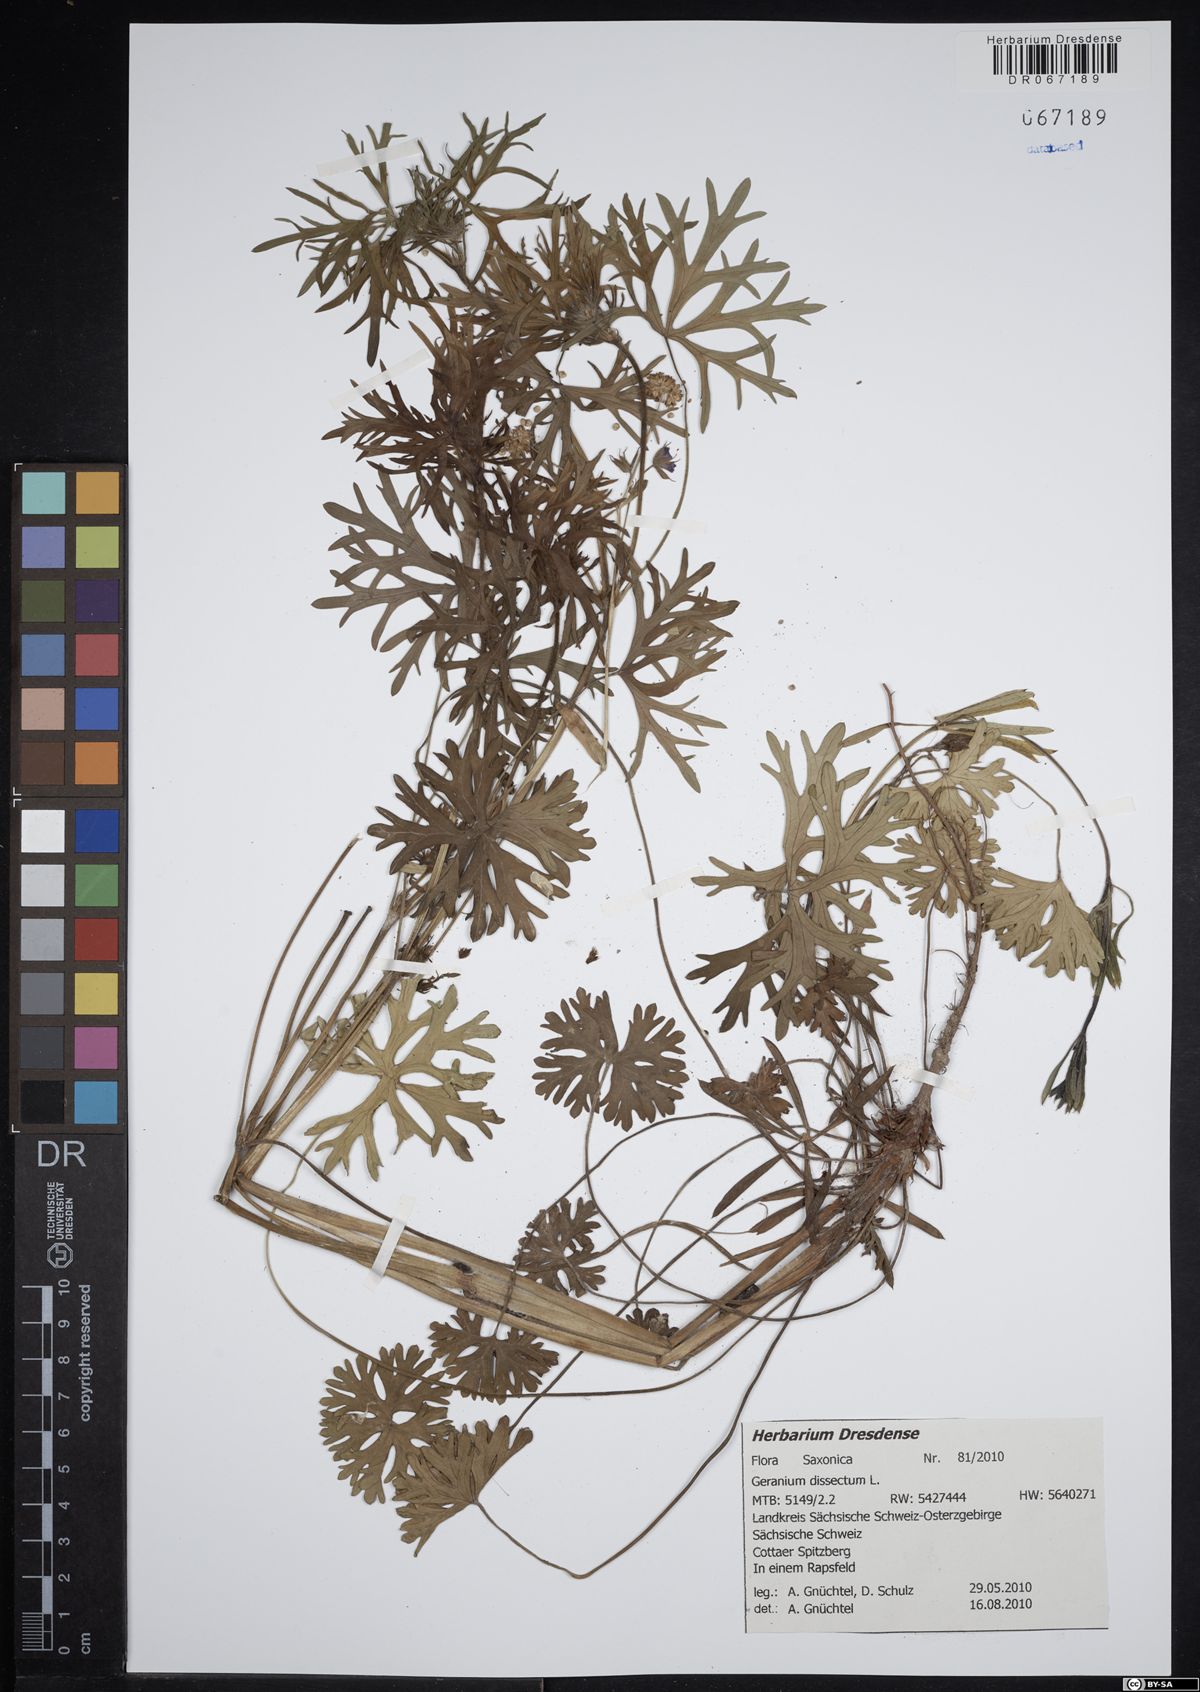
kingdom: Plantae
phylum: Tracheophyta
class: Magnoliopsida
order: Geraniales
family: Geraniaceae
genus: Geranium
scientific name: Geranium dissectum
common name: Cut-leaved crane's-bill
